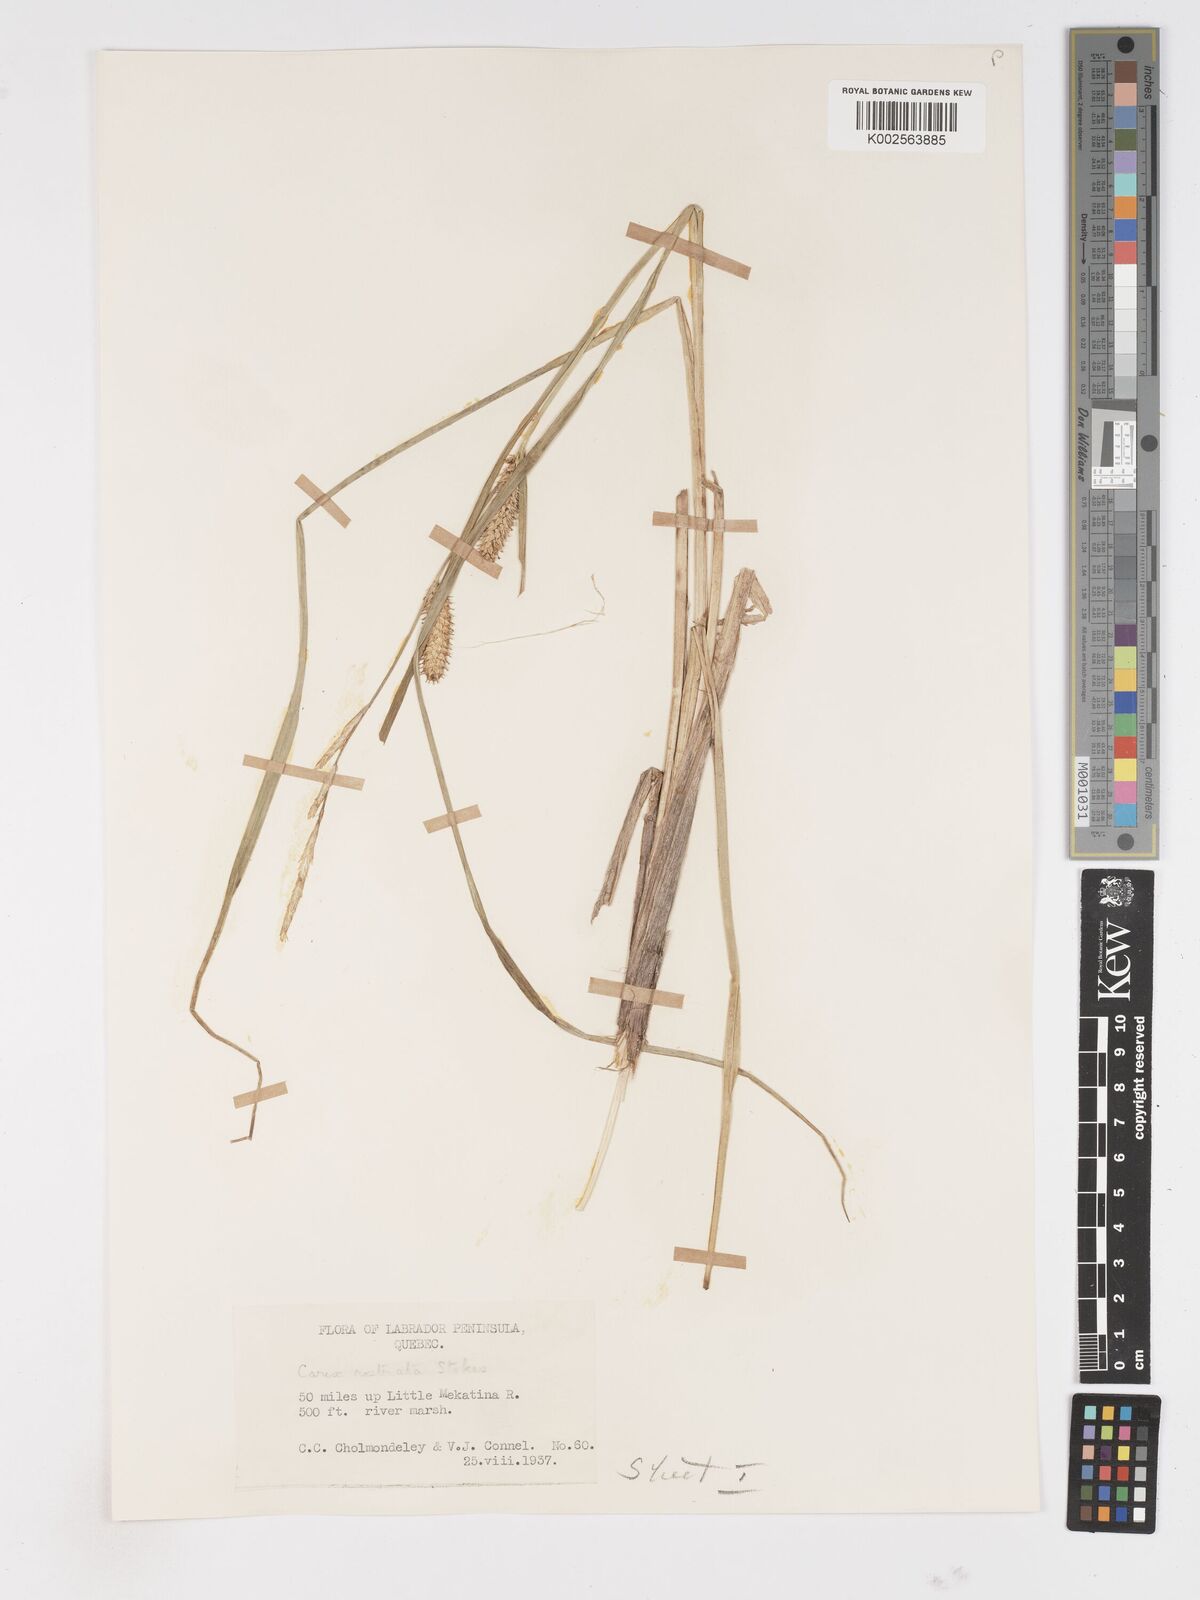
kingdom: Plantae
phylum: Tracheophyta
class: Liliopsida
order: Poales
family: Cyperaceae
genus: Carex
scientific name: Carex rostrata
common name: Bottle sedge
